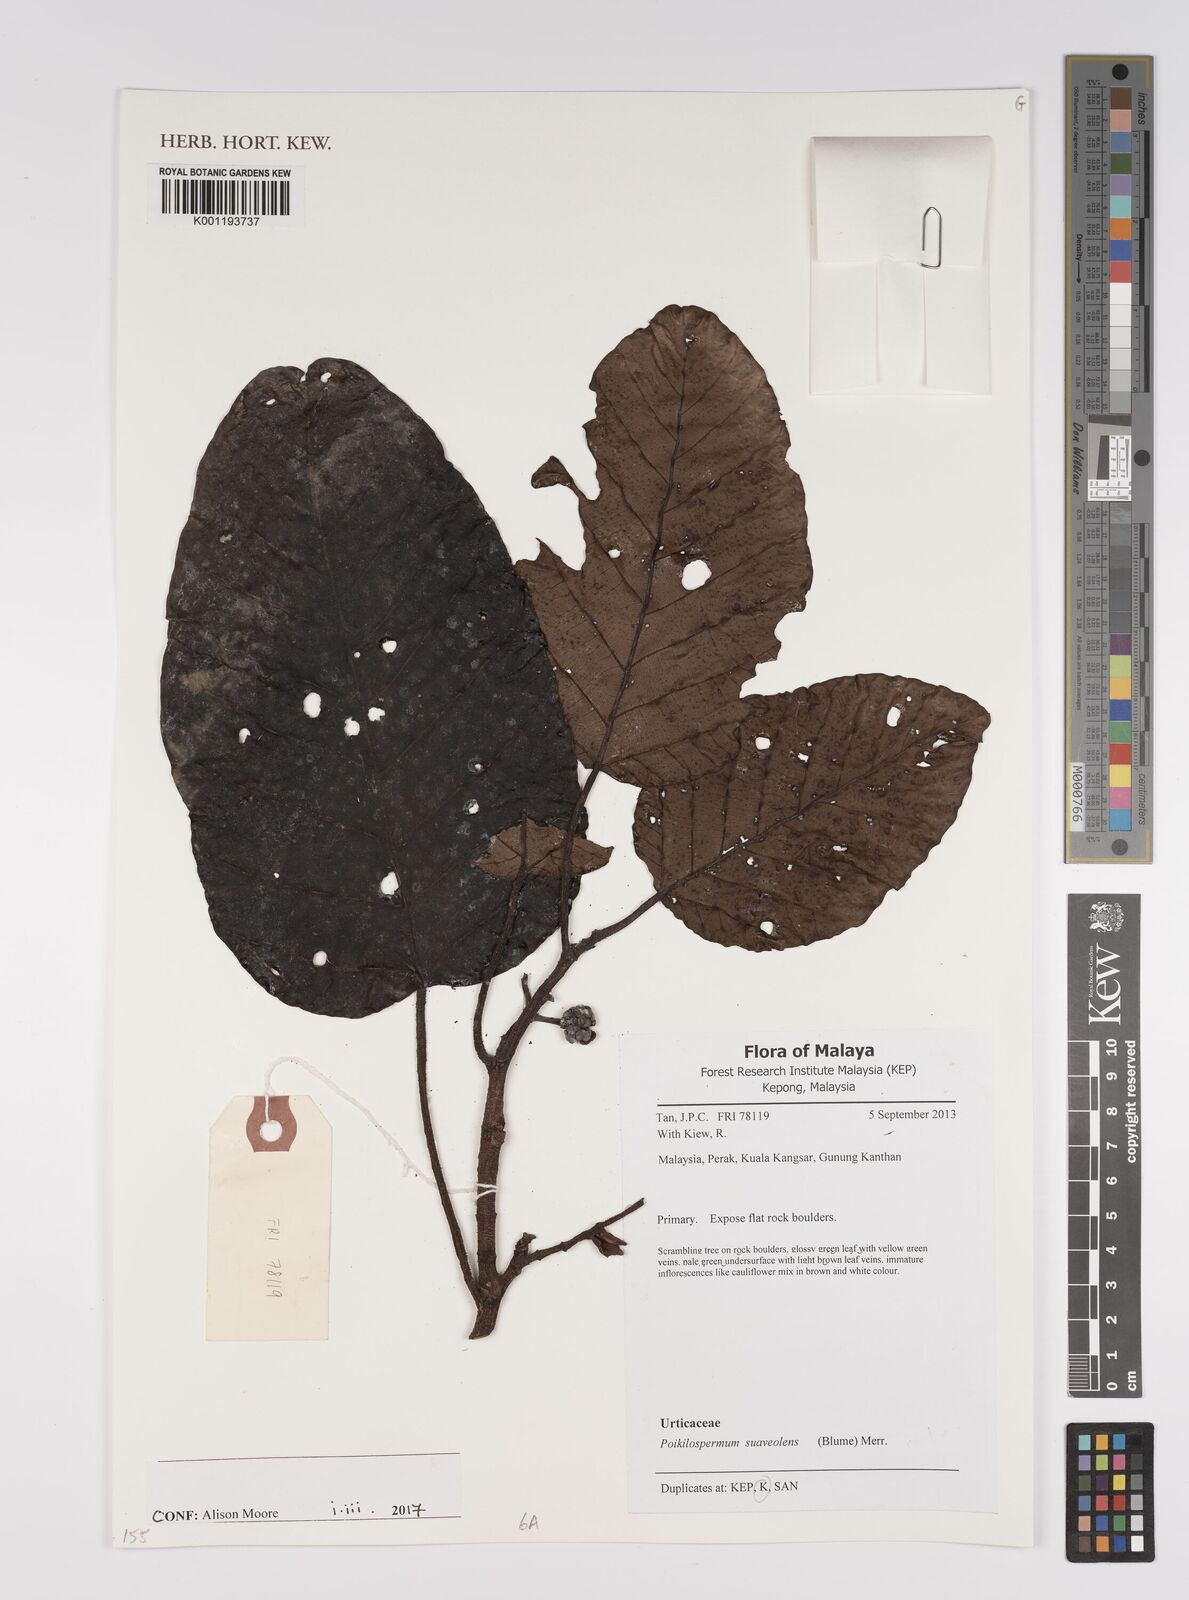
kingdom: Plantae
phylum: Tracheophyta
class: Magnoliopsida
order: Rosales
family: Urticaceae
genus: Poikilospermum
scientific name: Poikilospermum suaveolens
